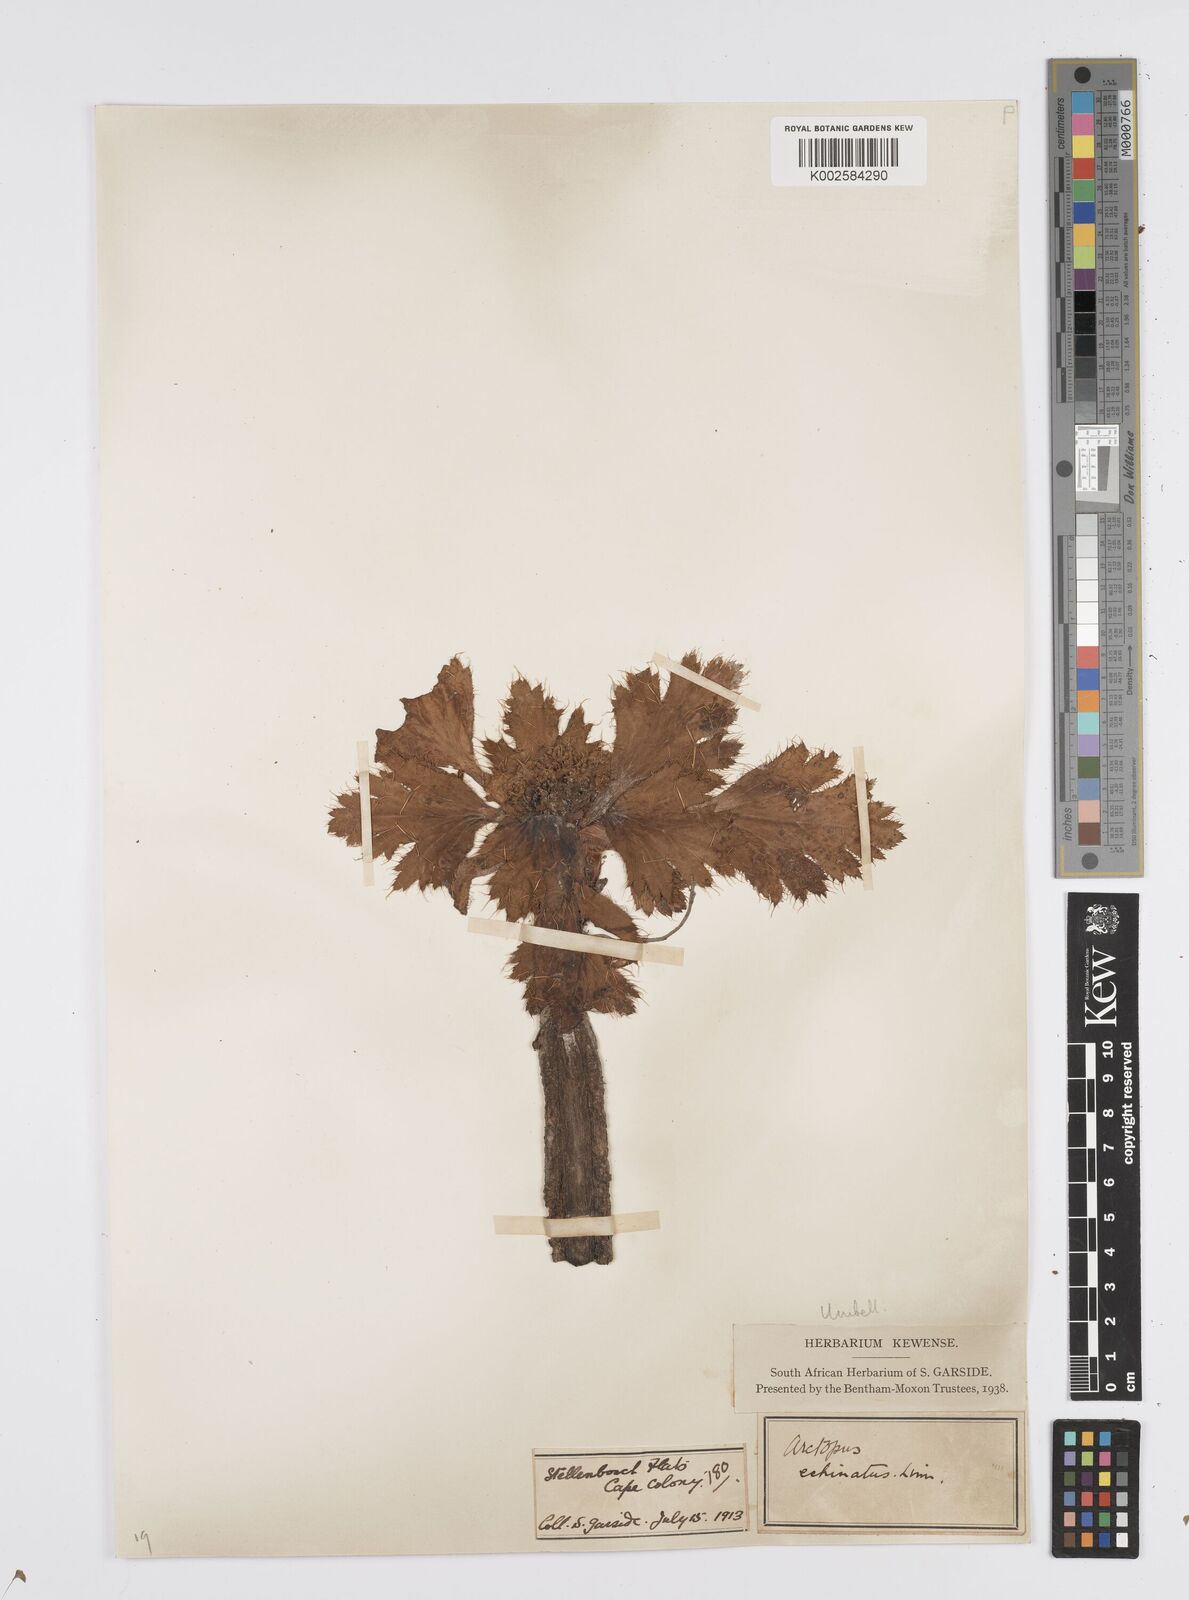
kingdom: Plantae
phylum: Tracheophyta
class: Magnoliopsida
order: Apiales
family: Apiaceae
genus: Arctopus
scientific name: Arctopus echinatus
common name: Platdoring
